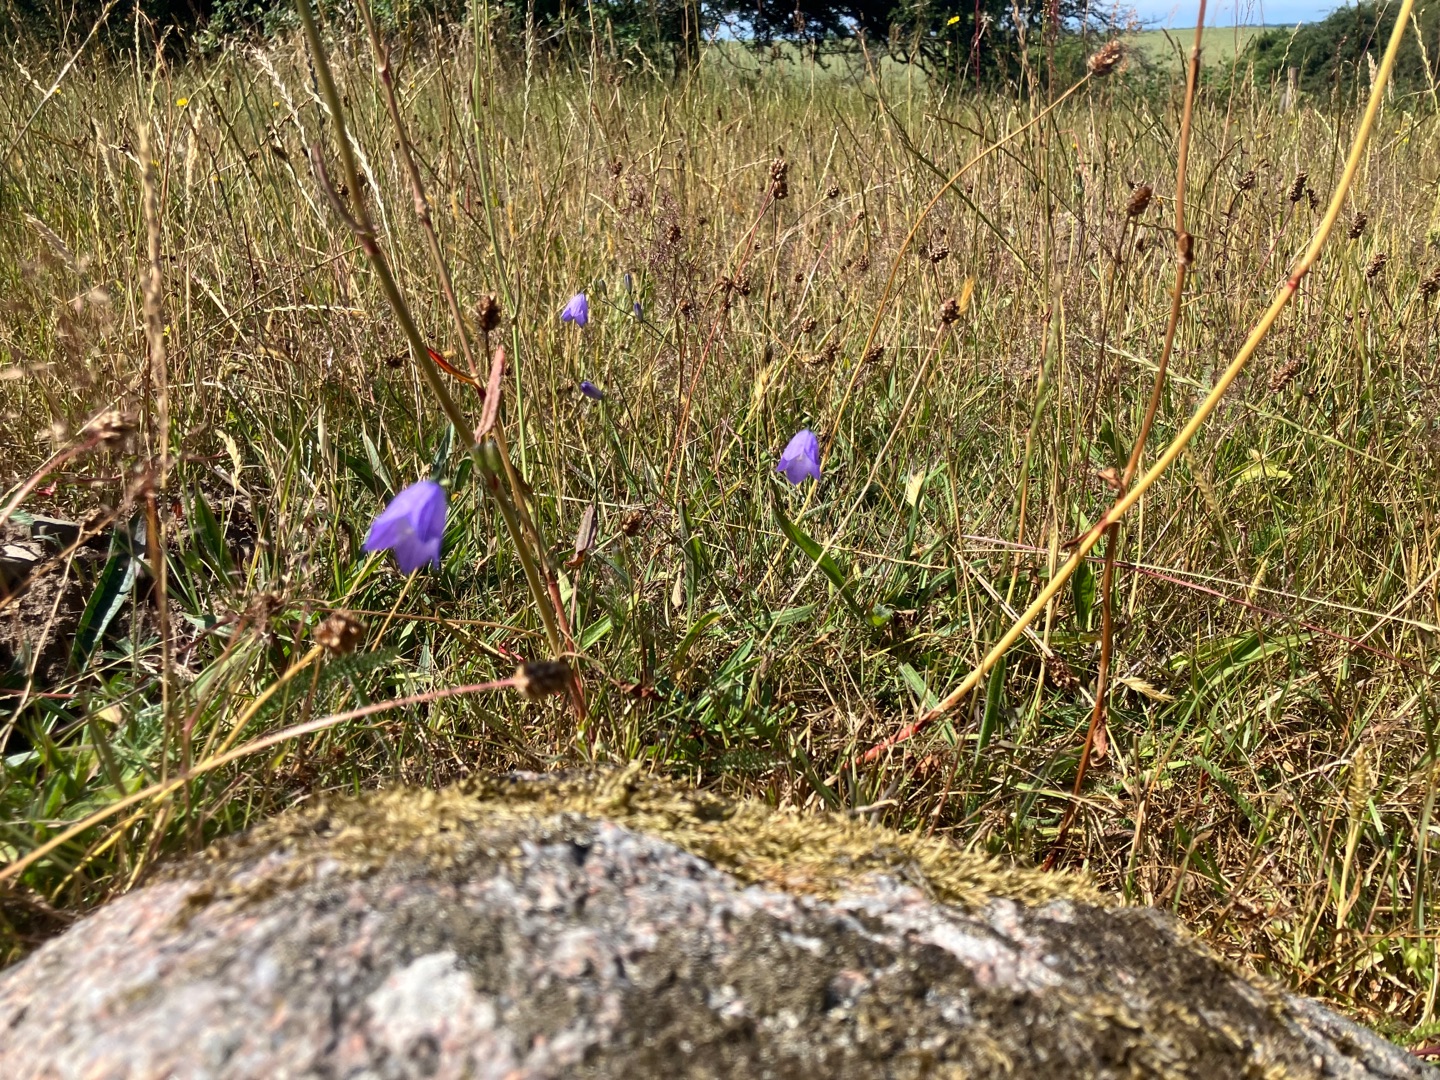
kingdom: Plantae
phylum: Tracheophyta
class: Magnoliopsida
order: Asterales
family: Campanulaceae
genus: Campanula
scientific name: Campanula rotundifolia
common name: Liden klokke
